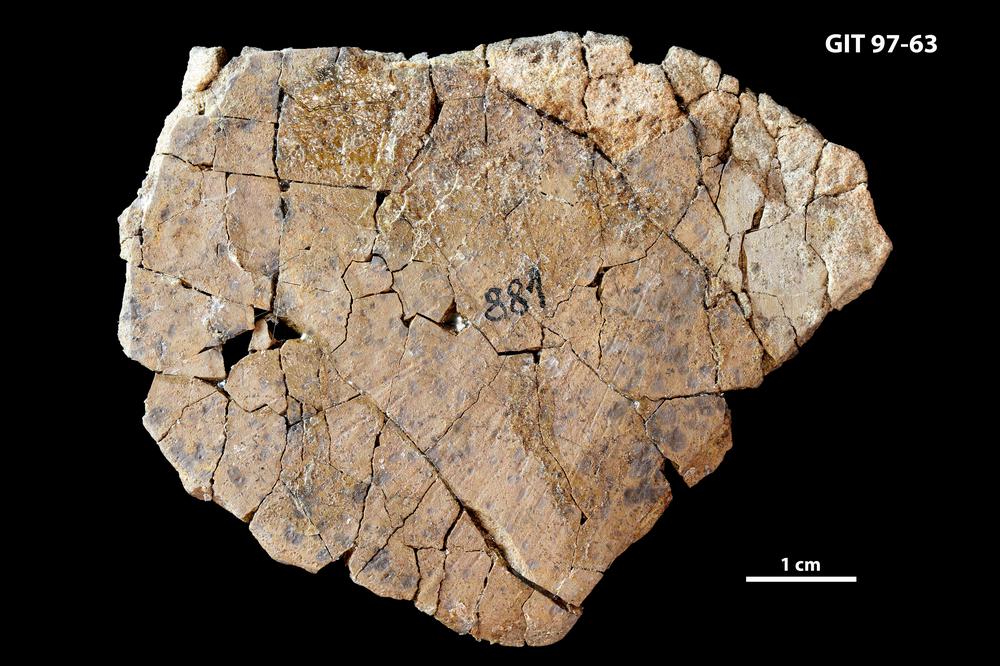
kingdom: Animalia
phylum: Chordata
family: Holonematidae
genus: Holonema
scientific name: Holonema
